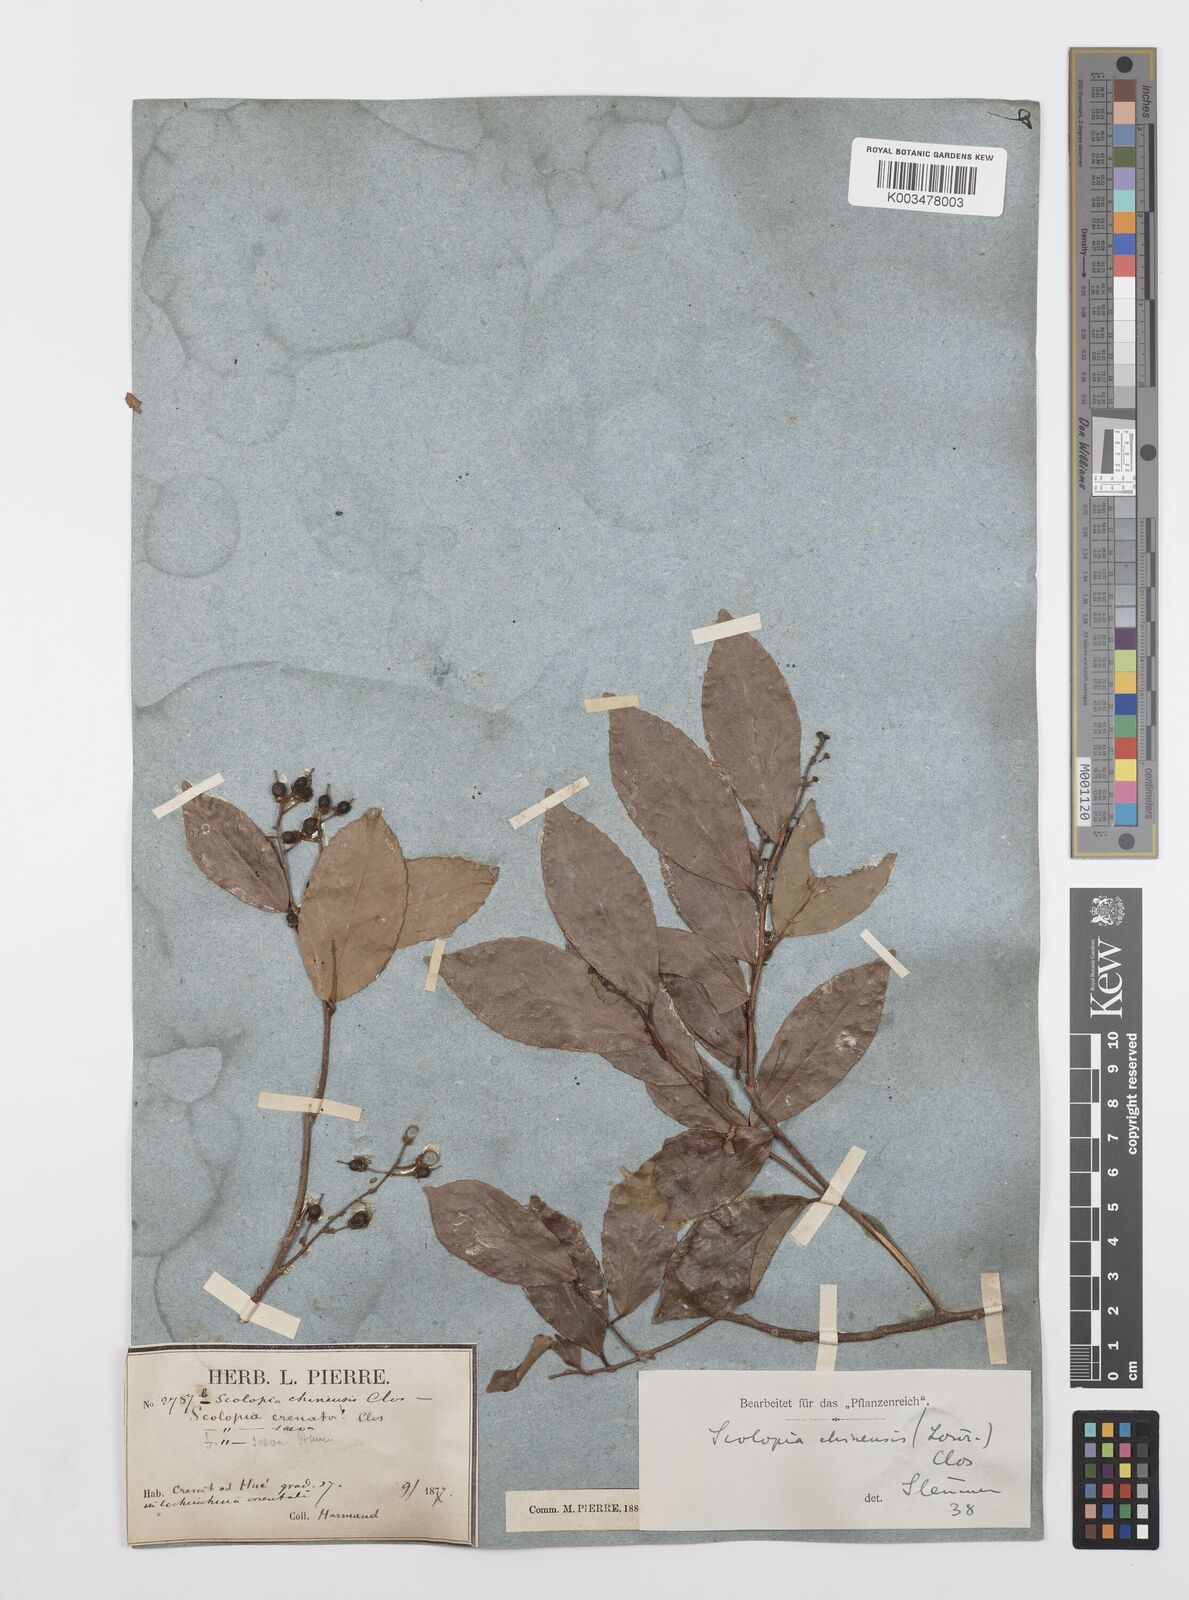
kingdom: Plantae
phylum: Tracheophyta
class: Magnoliopsida
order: Malpighiales
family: Salicaceae
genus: Scolopia
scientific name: Scolopia chinensis
